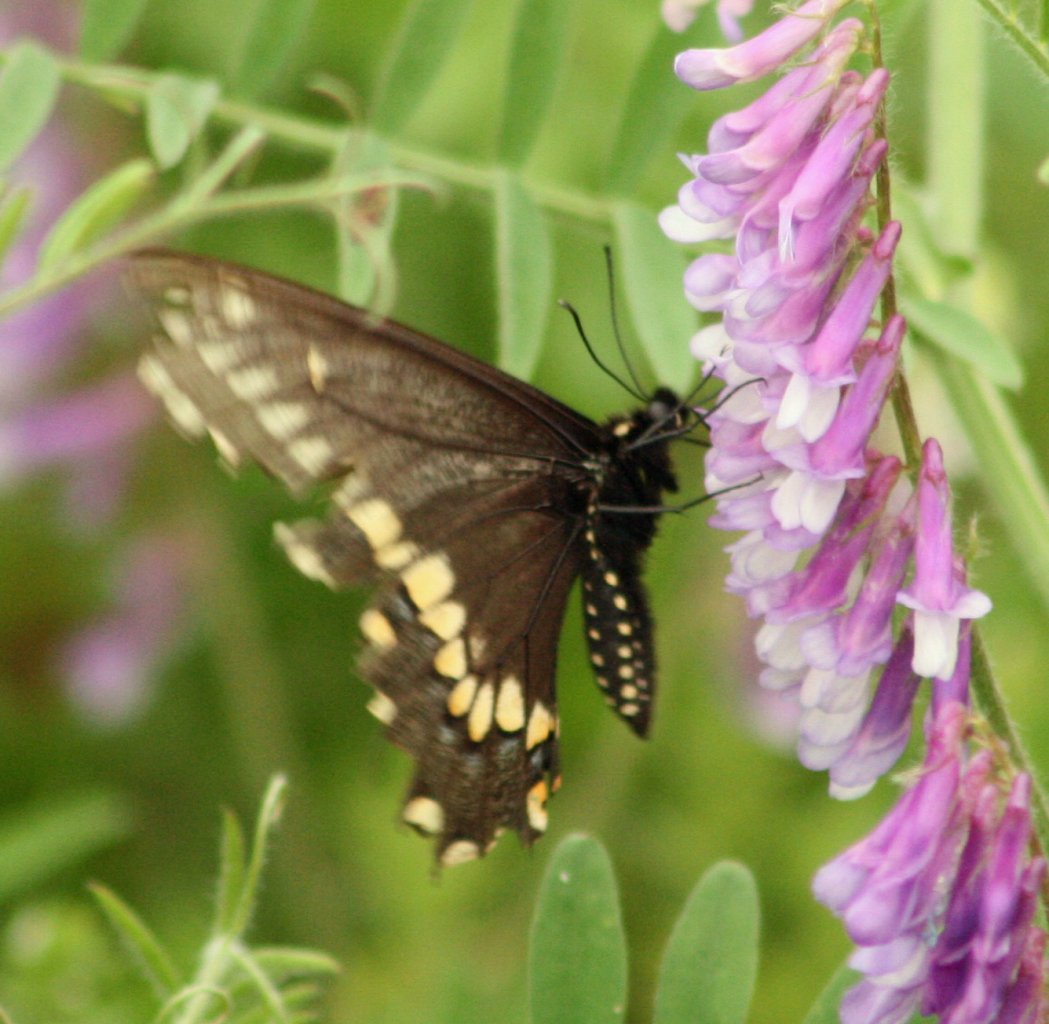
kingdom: Animalia
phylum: Arthropoda
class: Insecta
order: Lepidoptera
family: Papilionidae
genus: Papilio
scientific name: Papilio polyxenes
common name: Black Swallowtail
